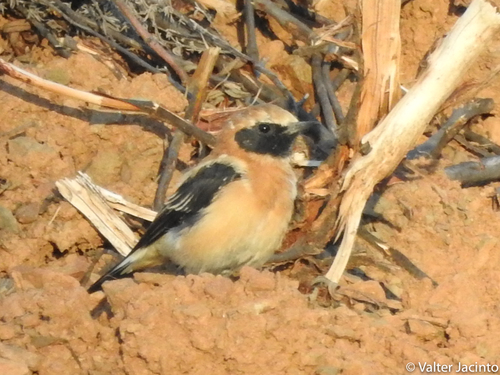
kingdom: Animalia
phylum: Chordata
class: Aves
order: Passeriformes
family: Muscicapidae
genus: Oenanthe
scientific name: Oenanthe hispanica
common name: Black-eared wheatear
